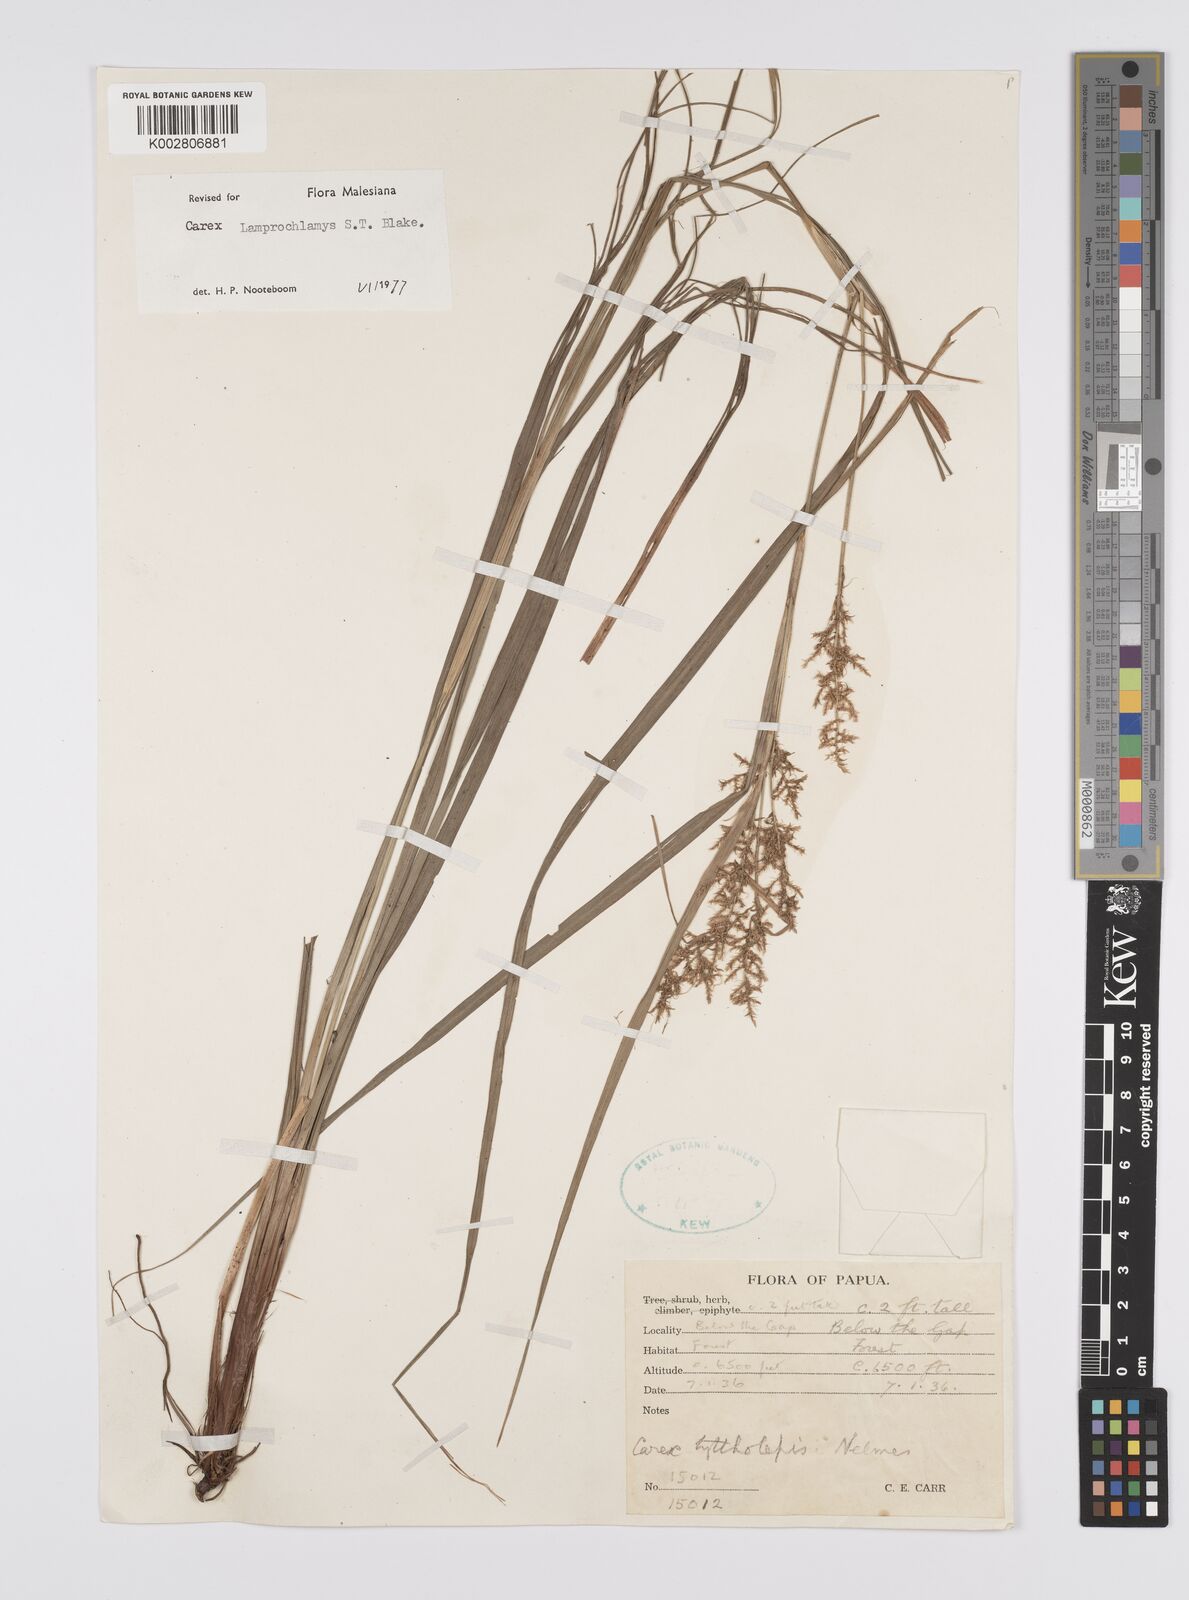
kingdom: Plantae
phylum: Tracheophyta
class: Liliopsida
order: Poales
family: Cyperaceae
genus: Carex
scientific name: Carex lamprochlamys
